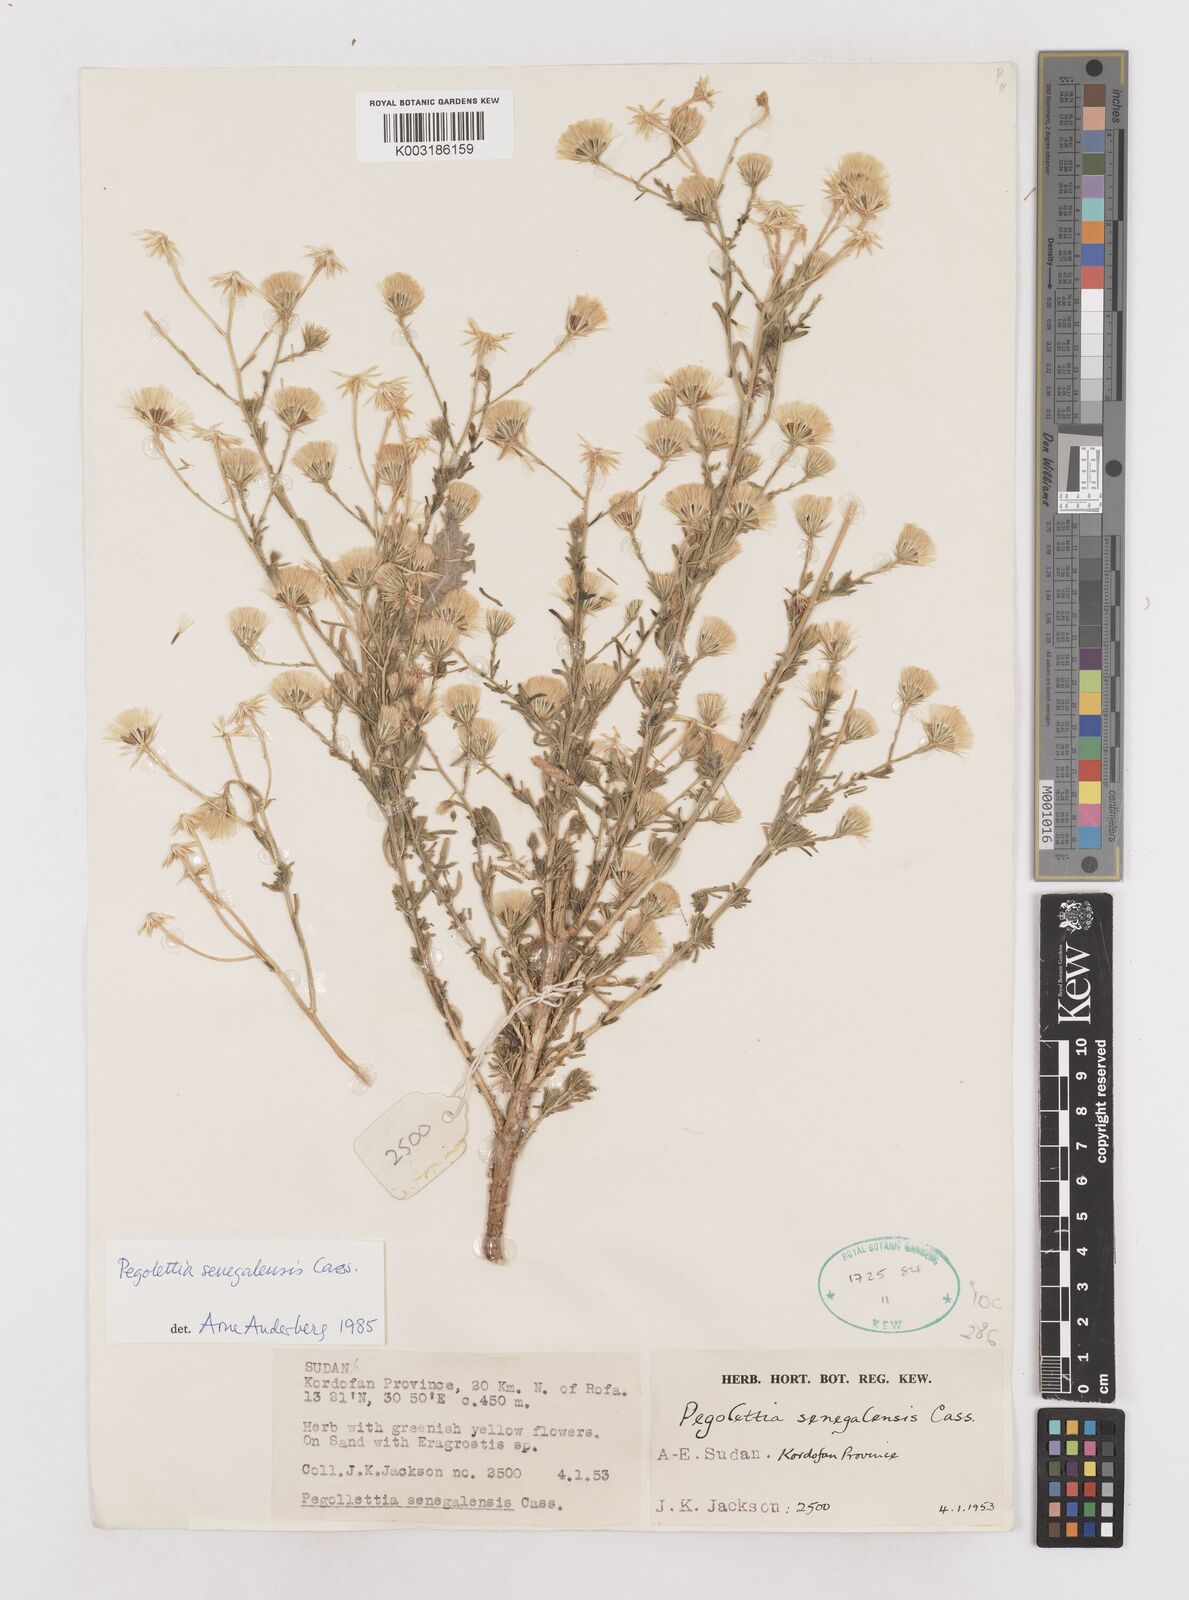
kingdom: Plantae
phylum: Tracheophyta
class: Magnoliopsida
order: Asterales
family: Asteraceae
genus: Pegolettia
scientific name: Pegolettia senegalensis
